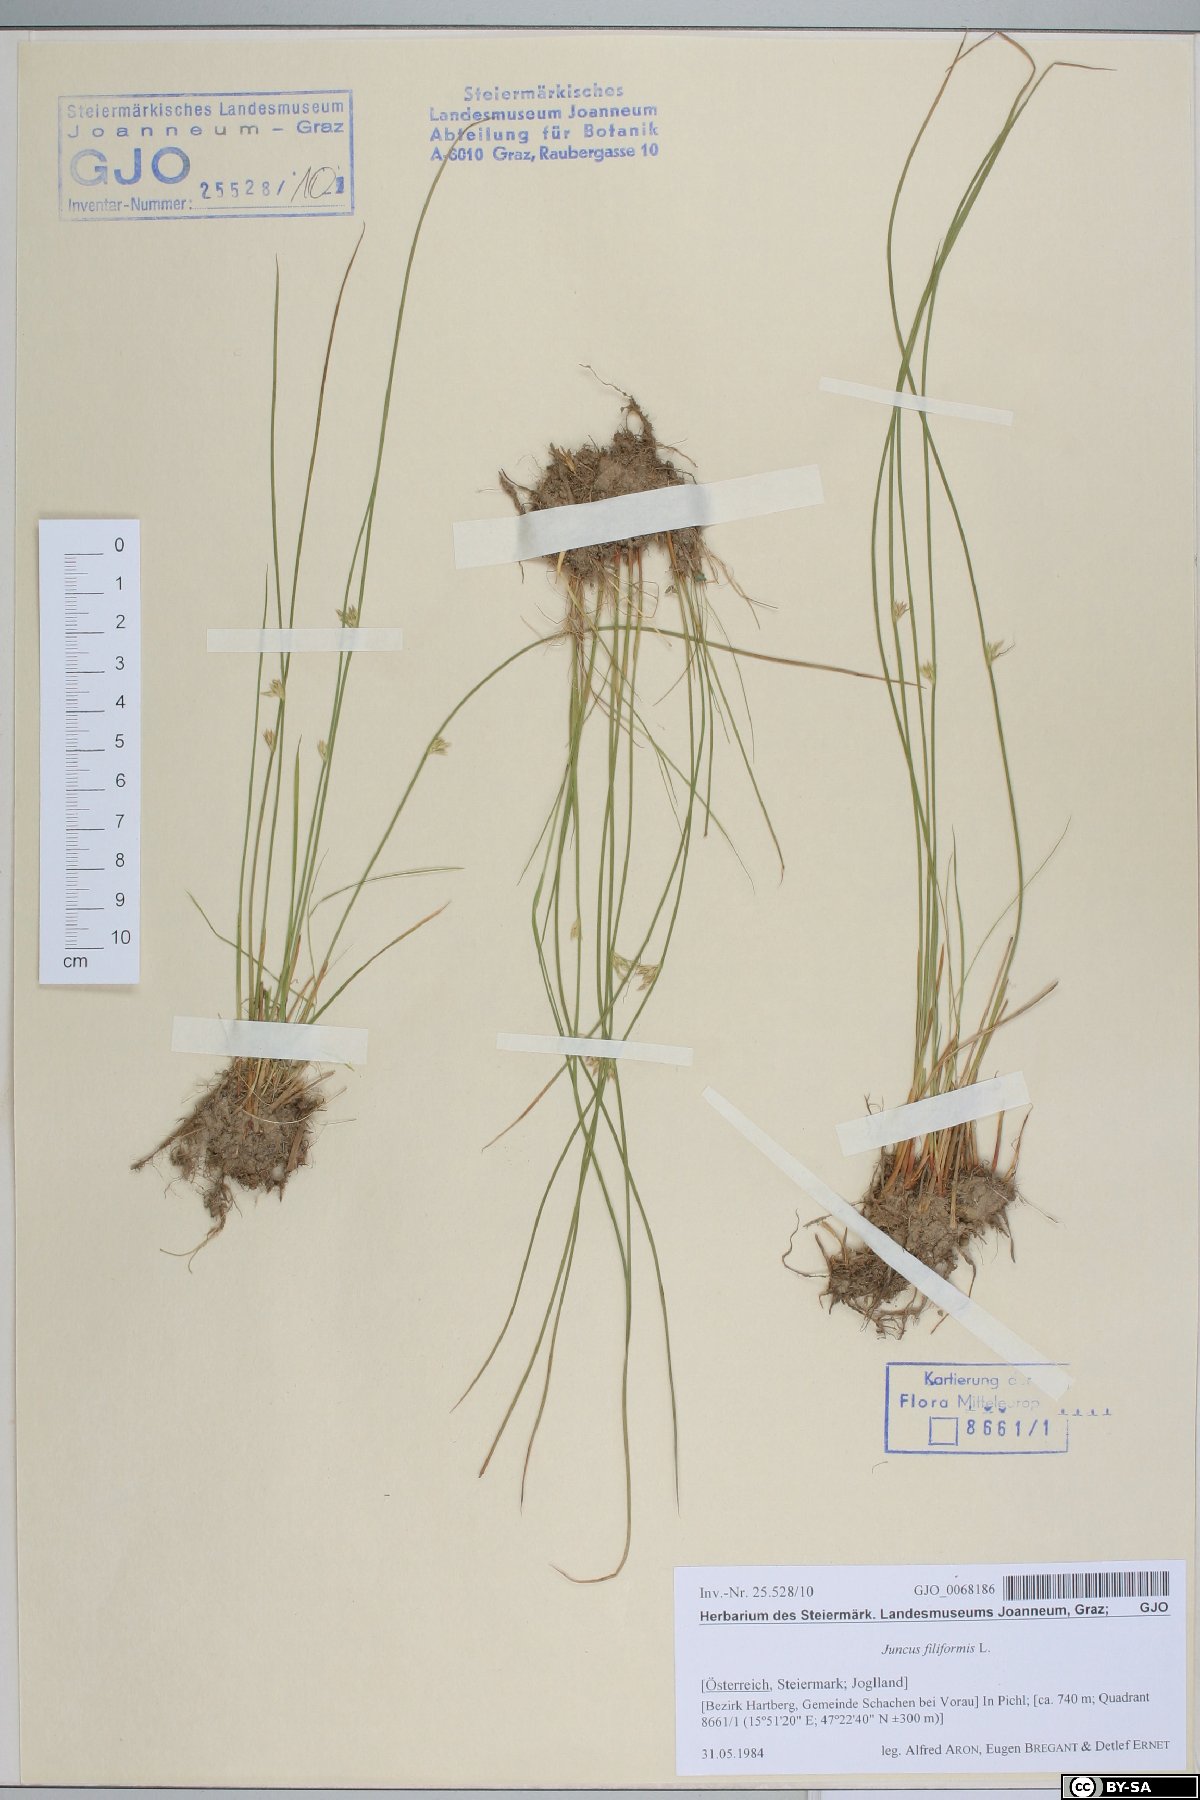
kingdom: Plantae
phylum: Tracheophyta
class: Liliopsida
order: Poales
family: Juncaceae
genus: Juncus
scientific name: Juncus filiformis
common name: Thread rush
